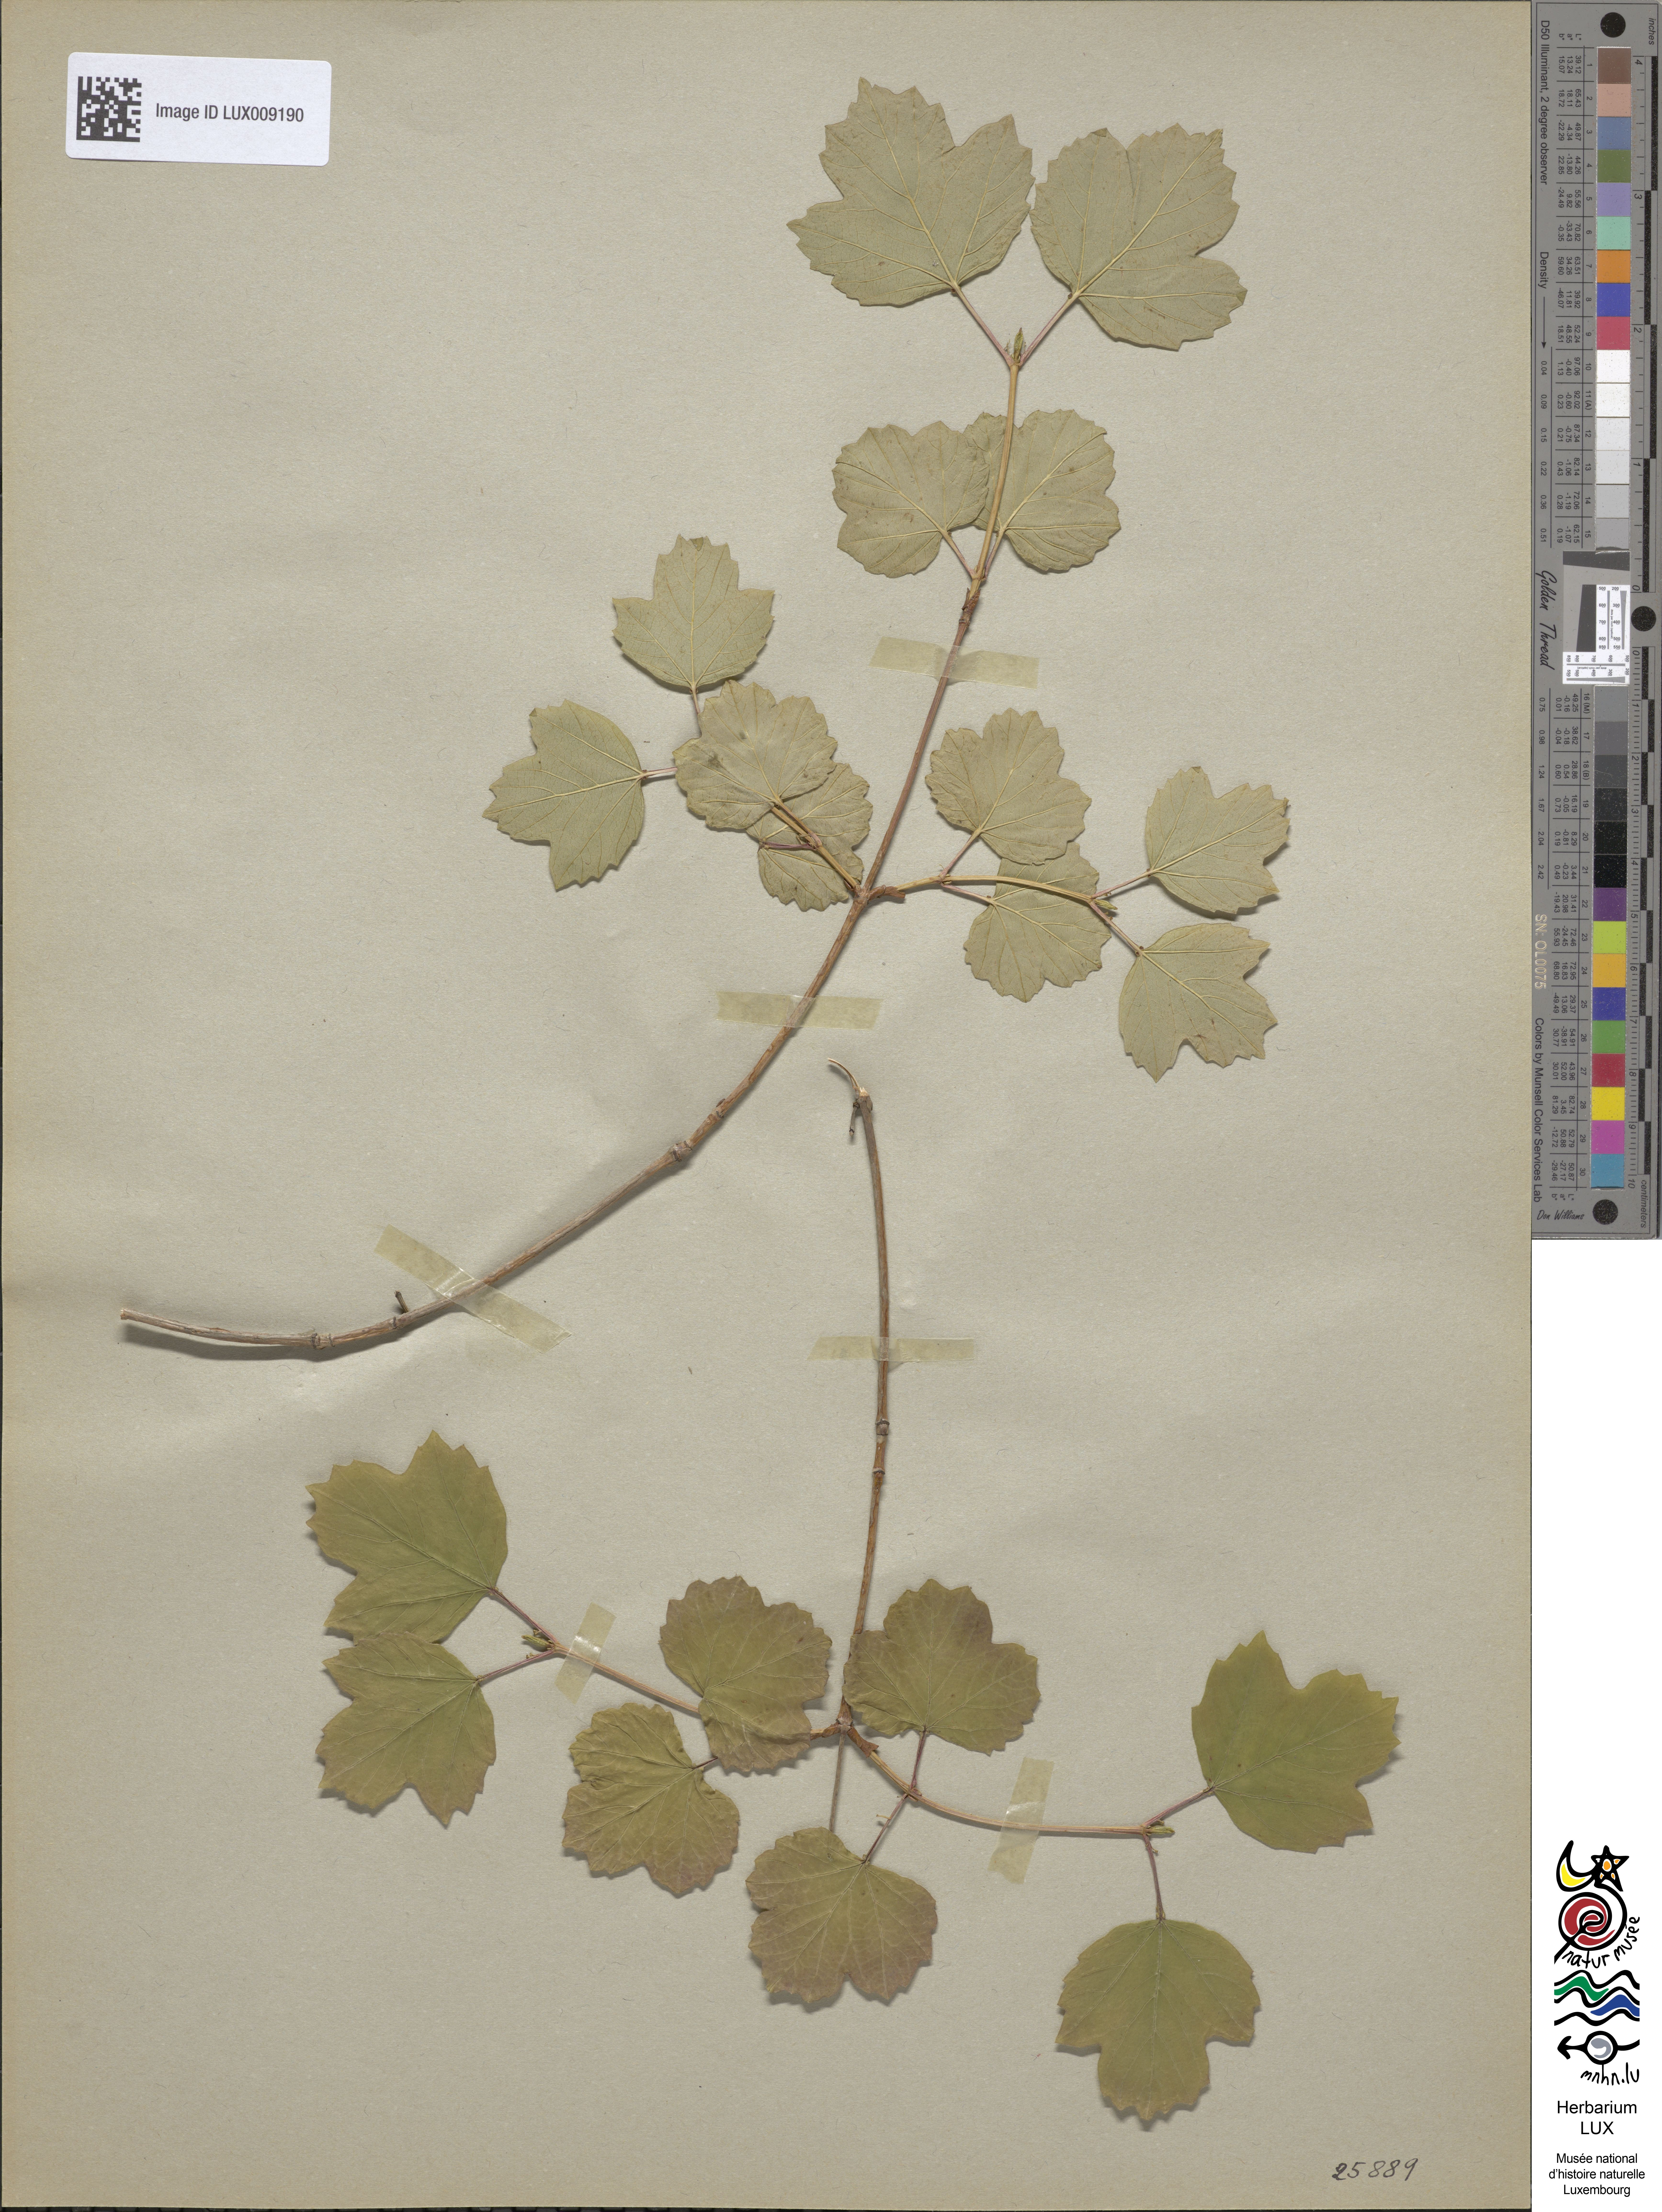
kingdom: Plantae
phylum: Tracheophyta
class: Magnoliopsida
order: Dipsacales
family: Viburnaceae
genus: Viburnum
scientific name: Viburnum opulus
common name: Guelder-rose
